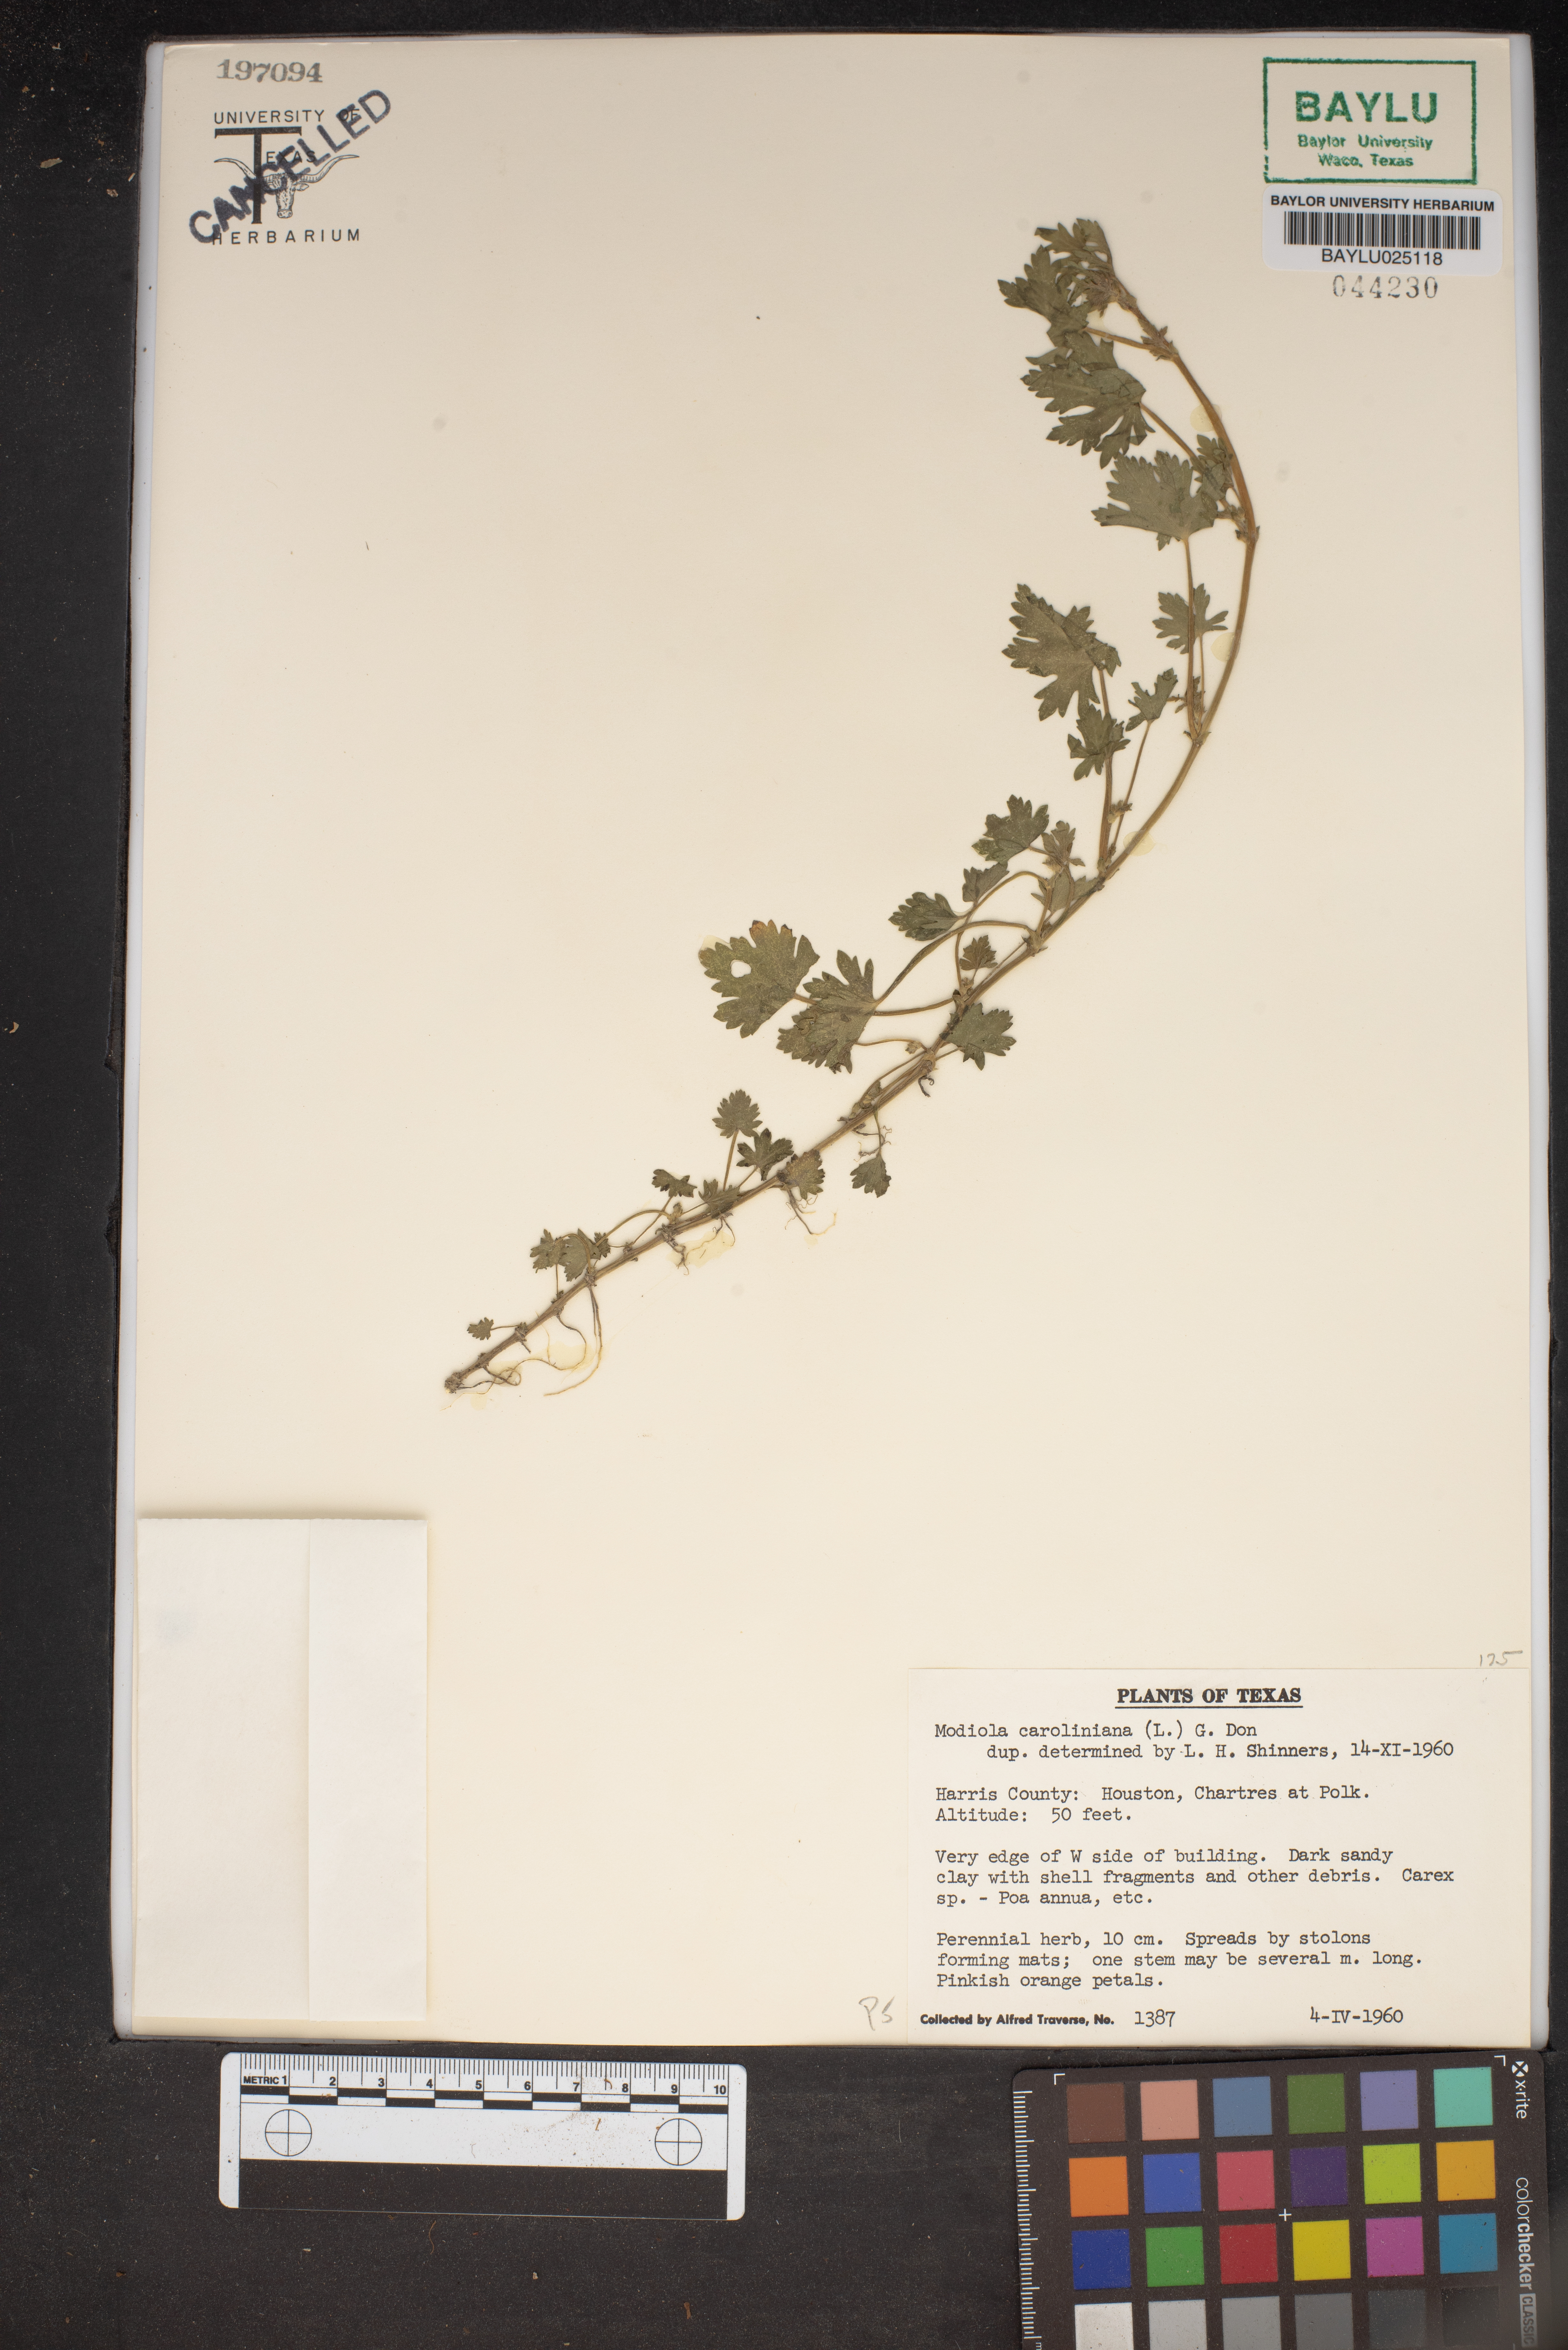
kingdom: Plantae
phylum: Tracheophyta
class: Magnoliopsida
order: Malvales
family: Malvaceae
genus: Modiola
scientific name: Modiola caroliniana
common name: Carolina bristlemallow
